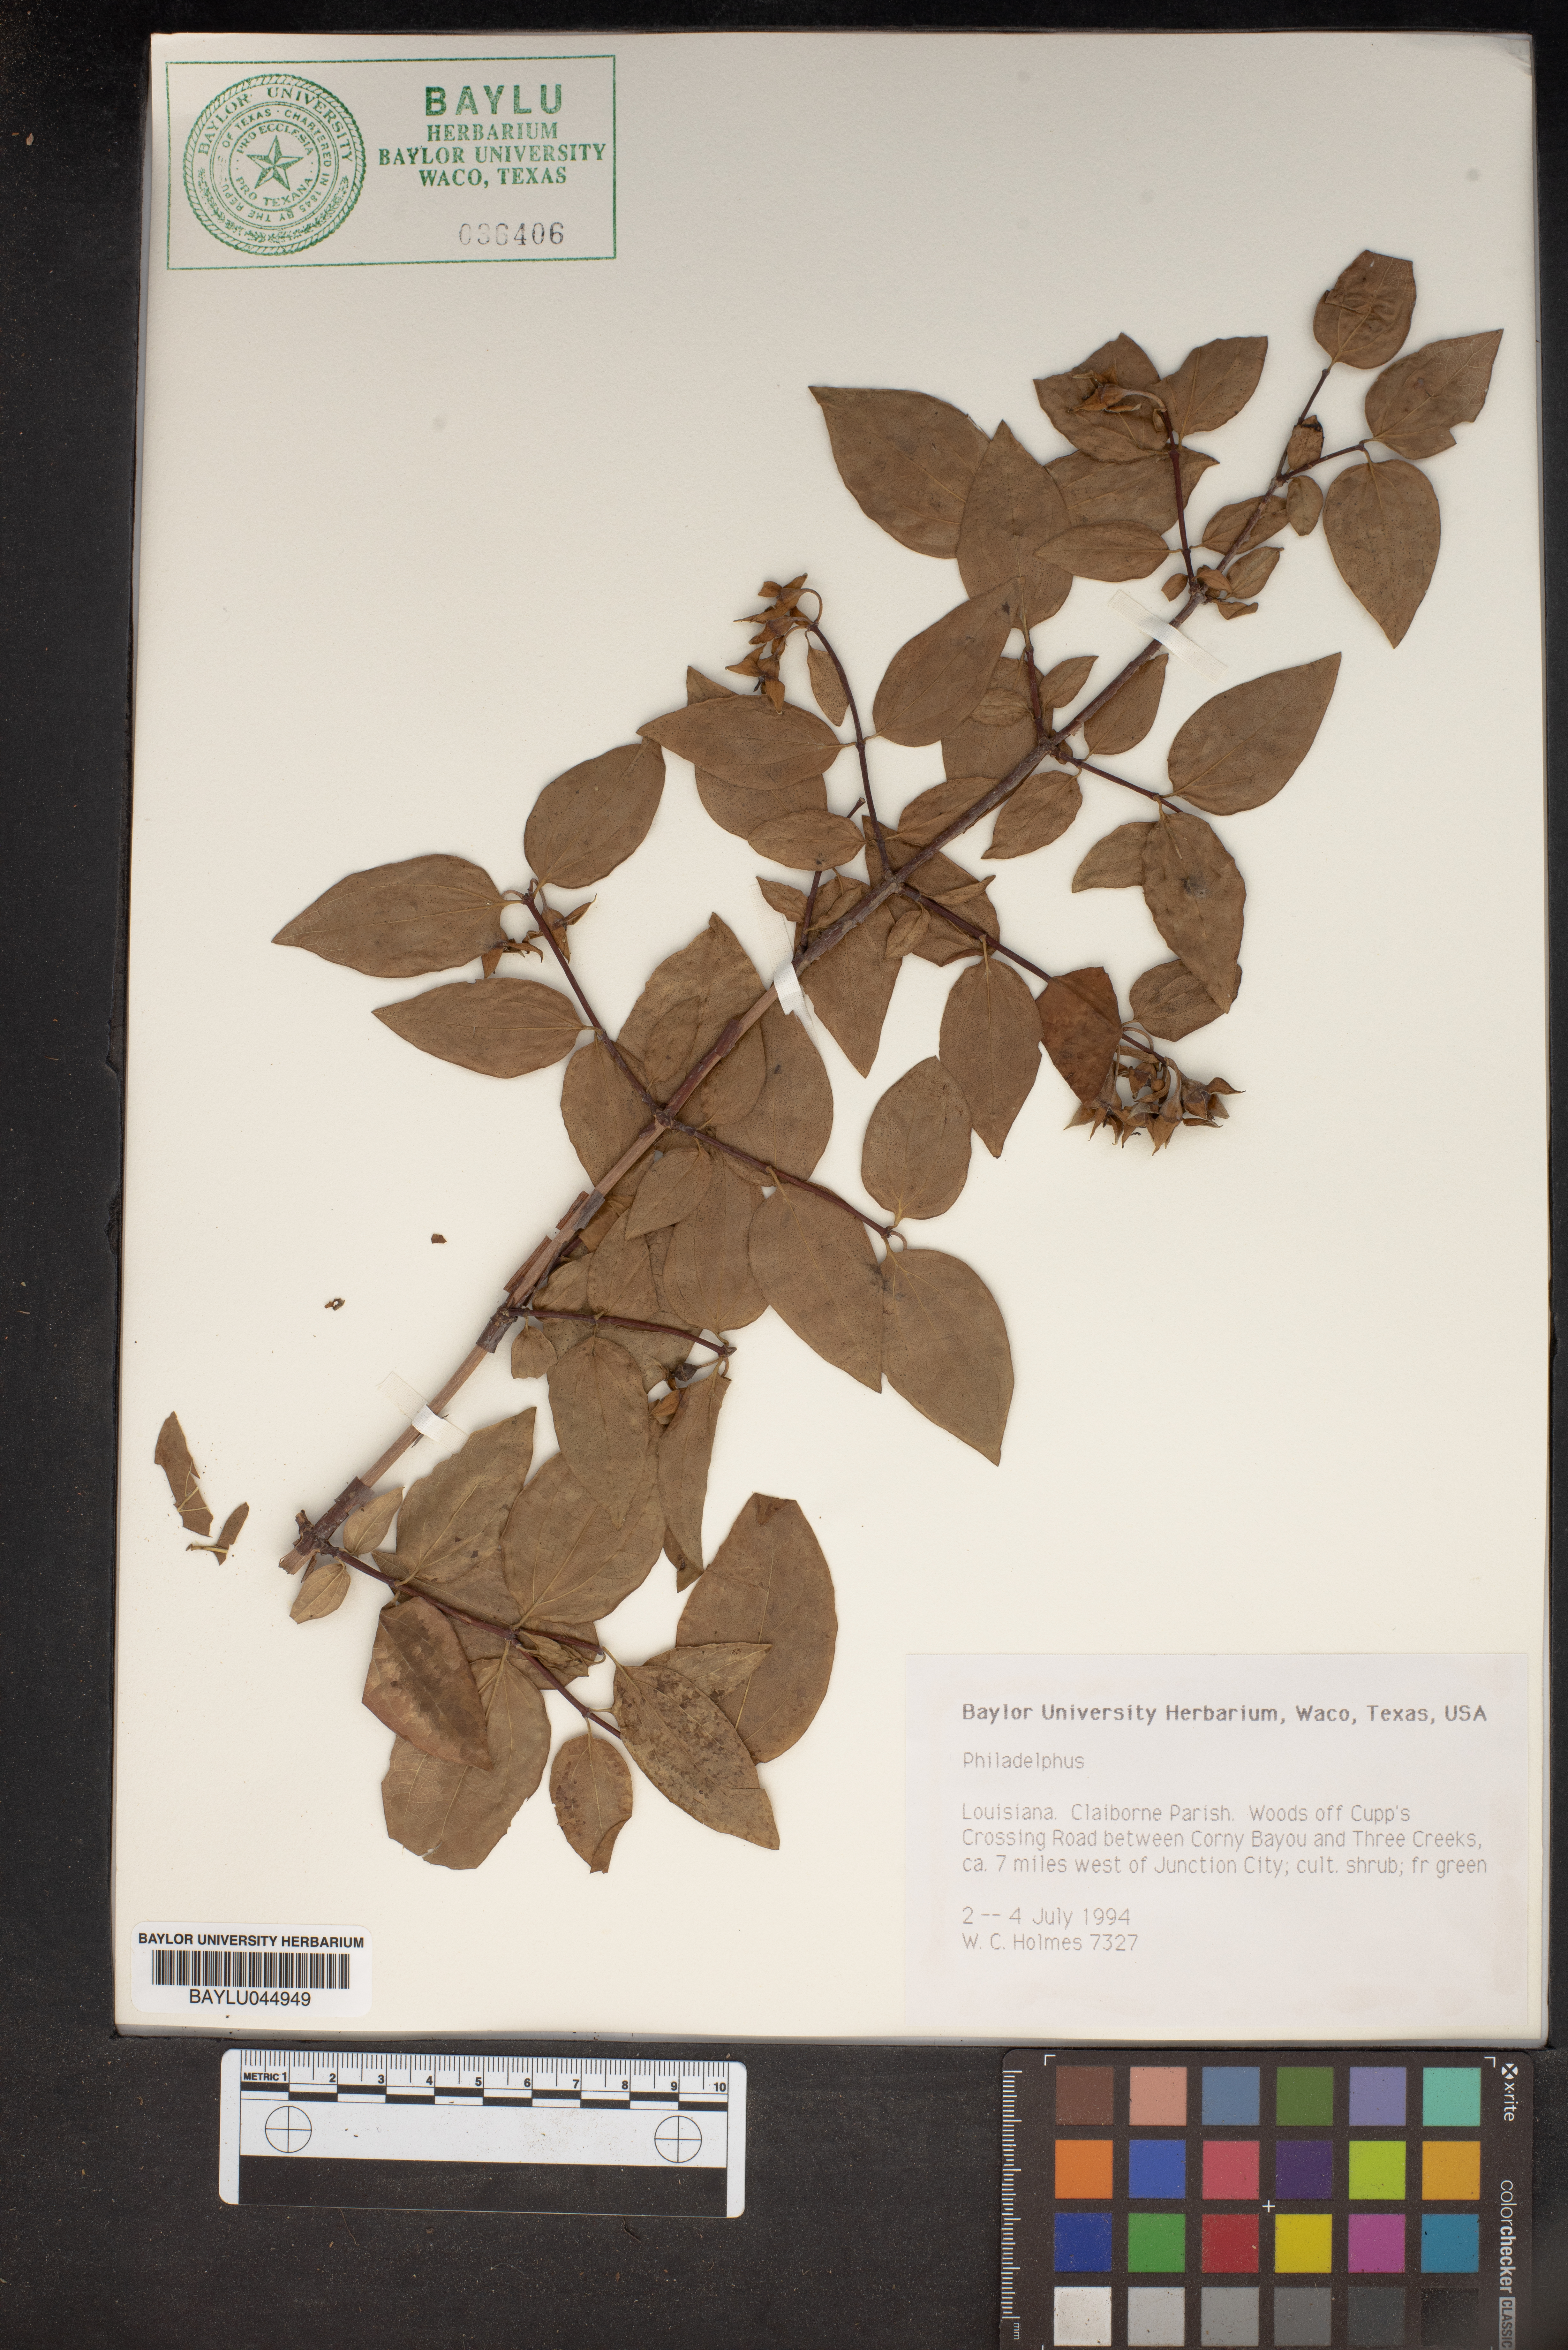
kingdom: Plantae
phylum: Tracheophyta
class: Magnoliopsida
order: Cornales
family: Hydrangeaceae
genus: Philadelphus
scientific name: Philadelphus
